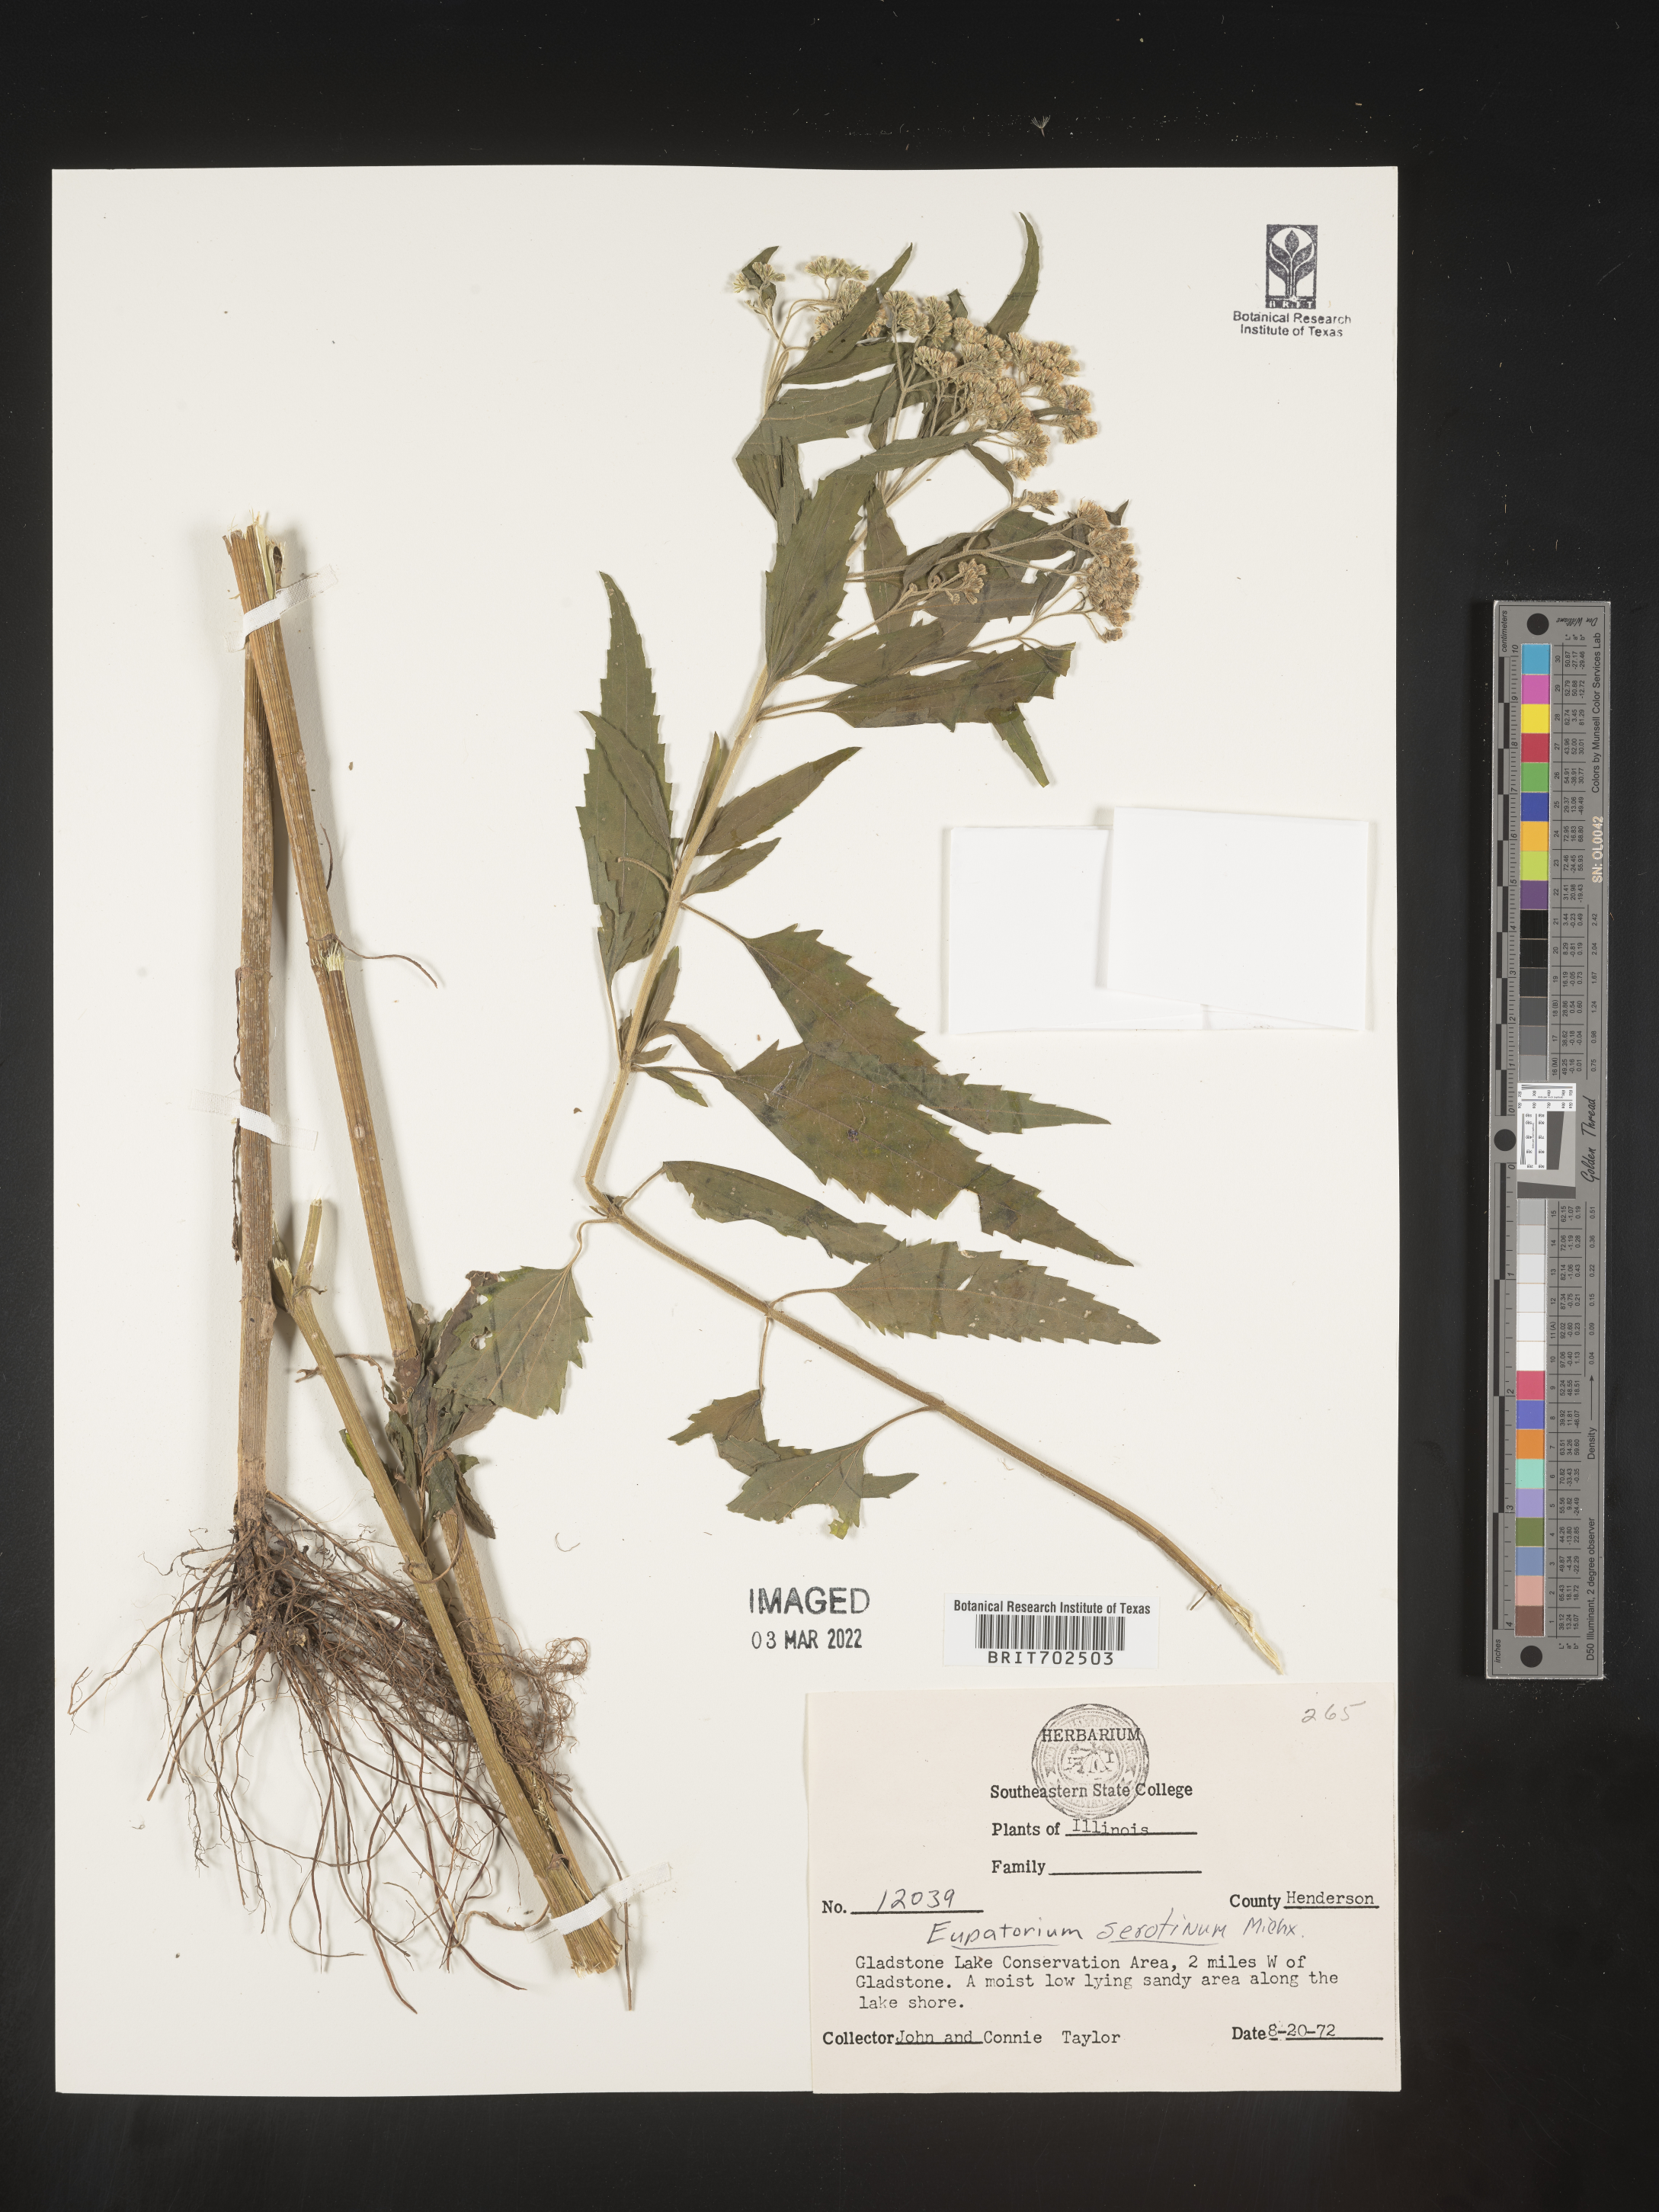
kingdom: Plantae
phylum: Tracheophyta
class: Magnoliopsida
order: Asterales
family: Asteraceae
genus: Eupatorium
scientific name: Eupatorium serotinum
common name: Late boneset
